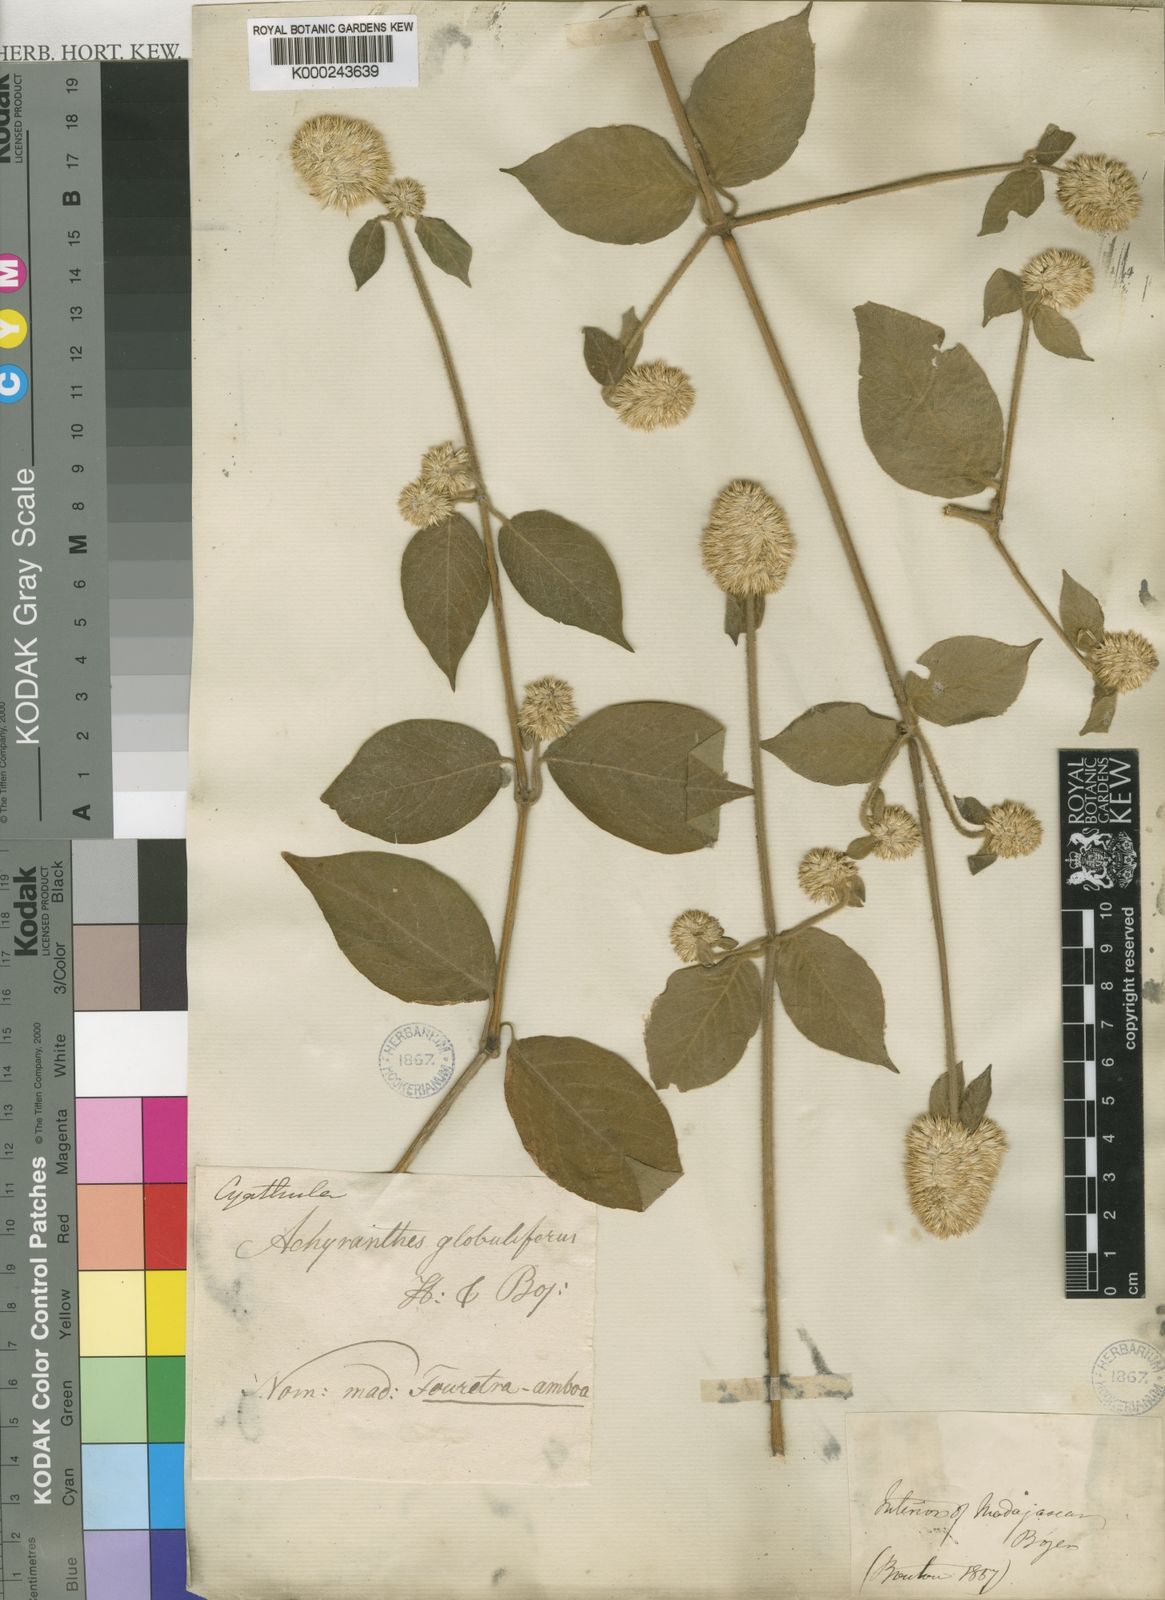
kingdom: Plantae
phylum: Tracheophyta
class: Magnoliopsida
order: Caryophyllales
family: Amaranthaceae
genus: Cyathula
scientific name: Cyathula uncinulata
